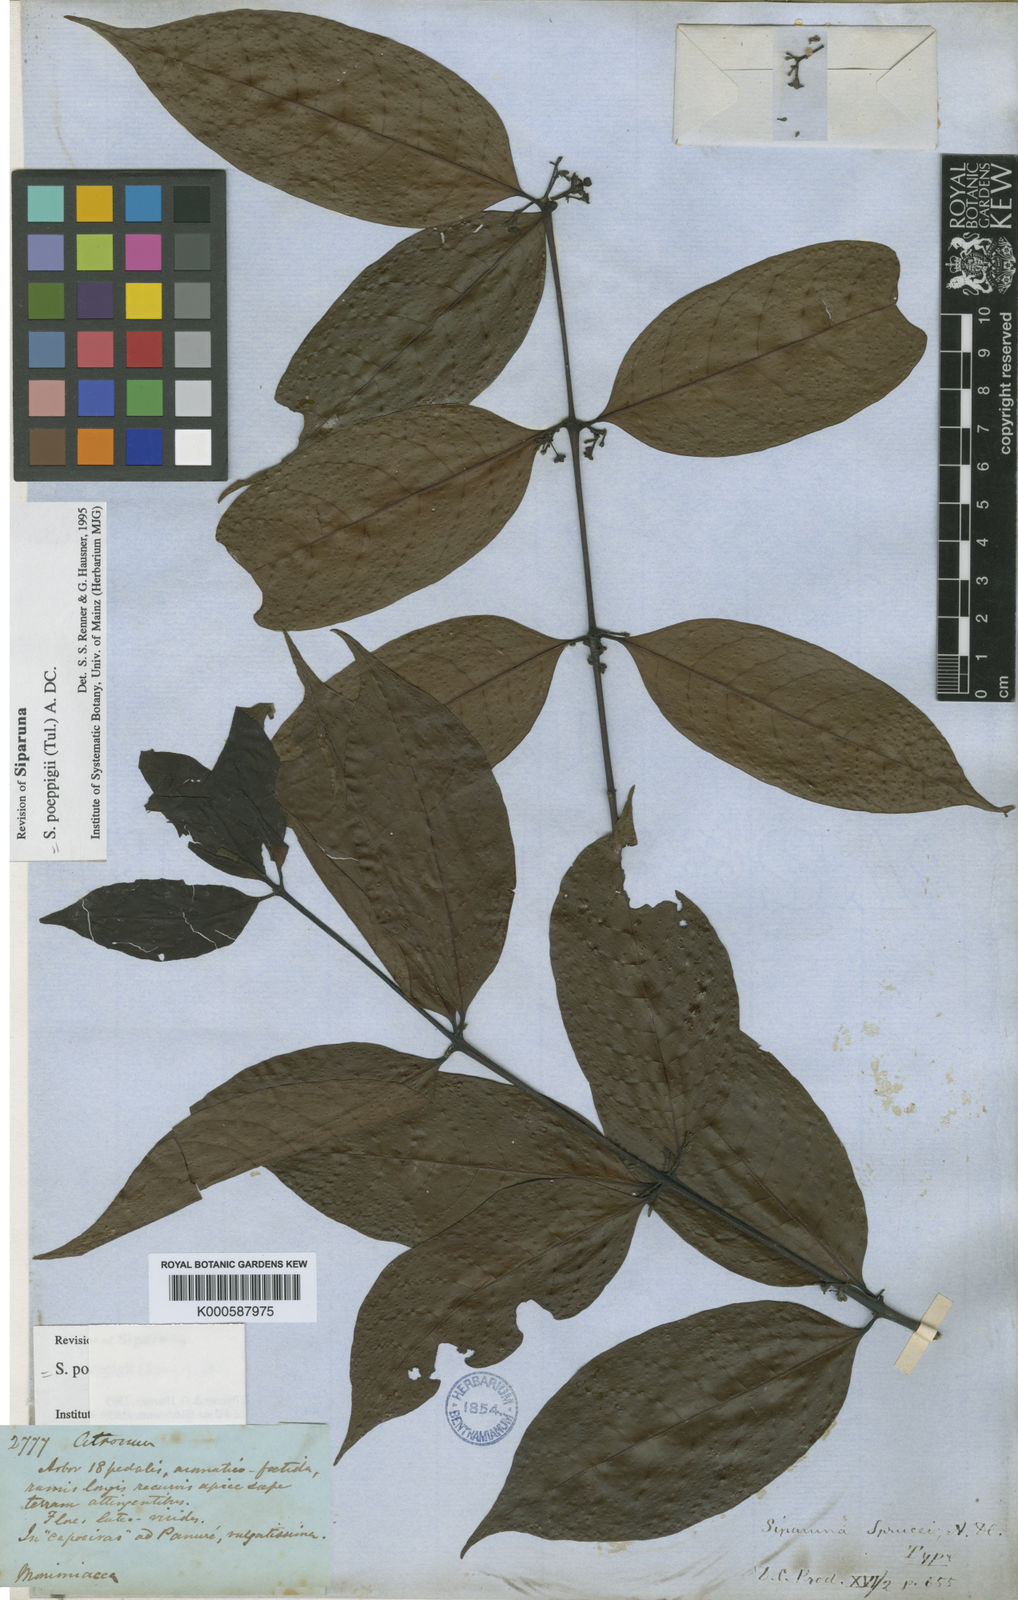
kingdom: Plantae
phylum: Tracheophyta
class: Magnoliopsida
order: Laurales
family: Siparunaceae
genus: Siparuna
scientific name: Siparuna poeppigii
